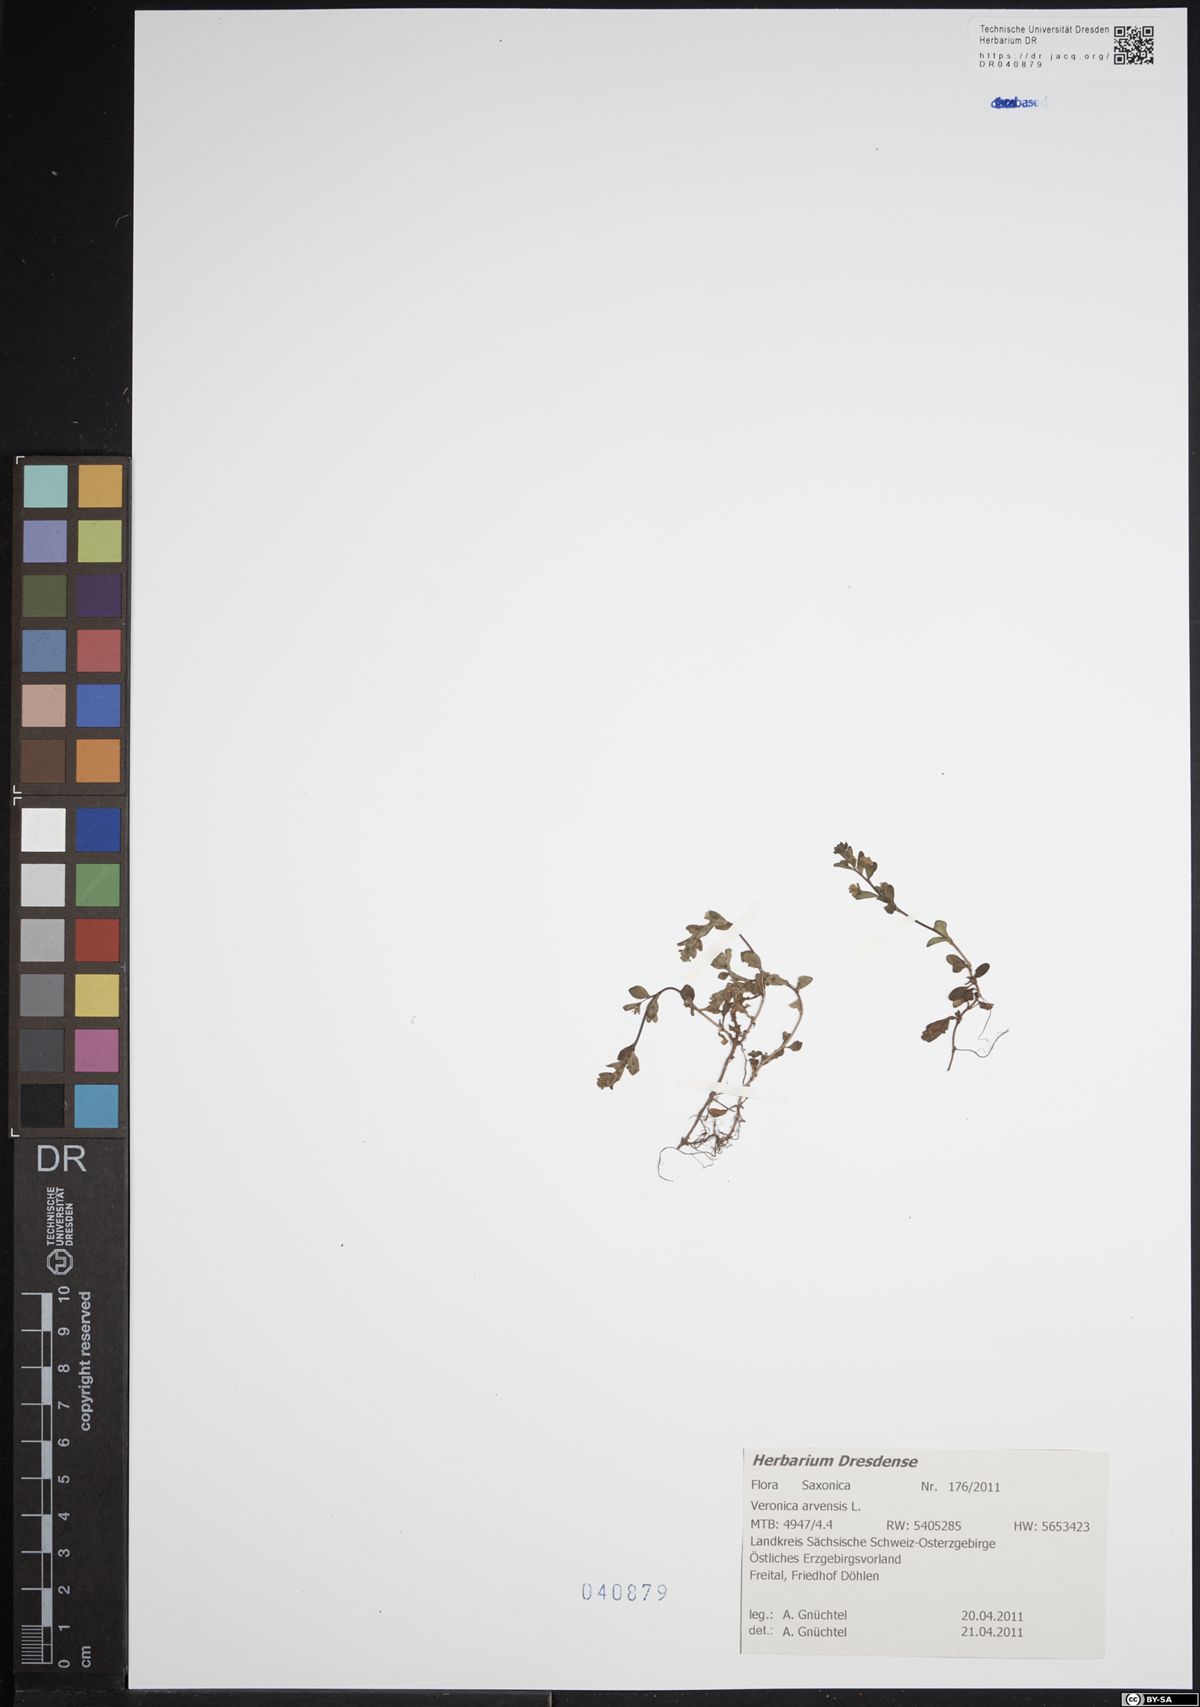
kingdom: Plantae
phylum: Tracheophyta
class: Magnoliopsida
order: Lamiales
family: Plantaginaceae
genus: Veronica
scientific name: Veronica arvensis
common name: Corn speedwell
